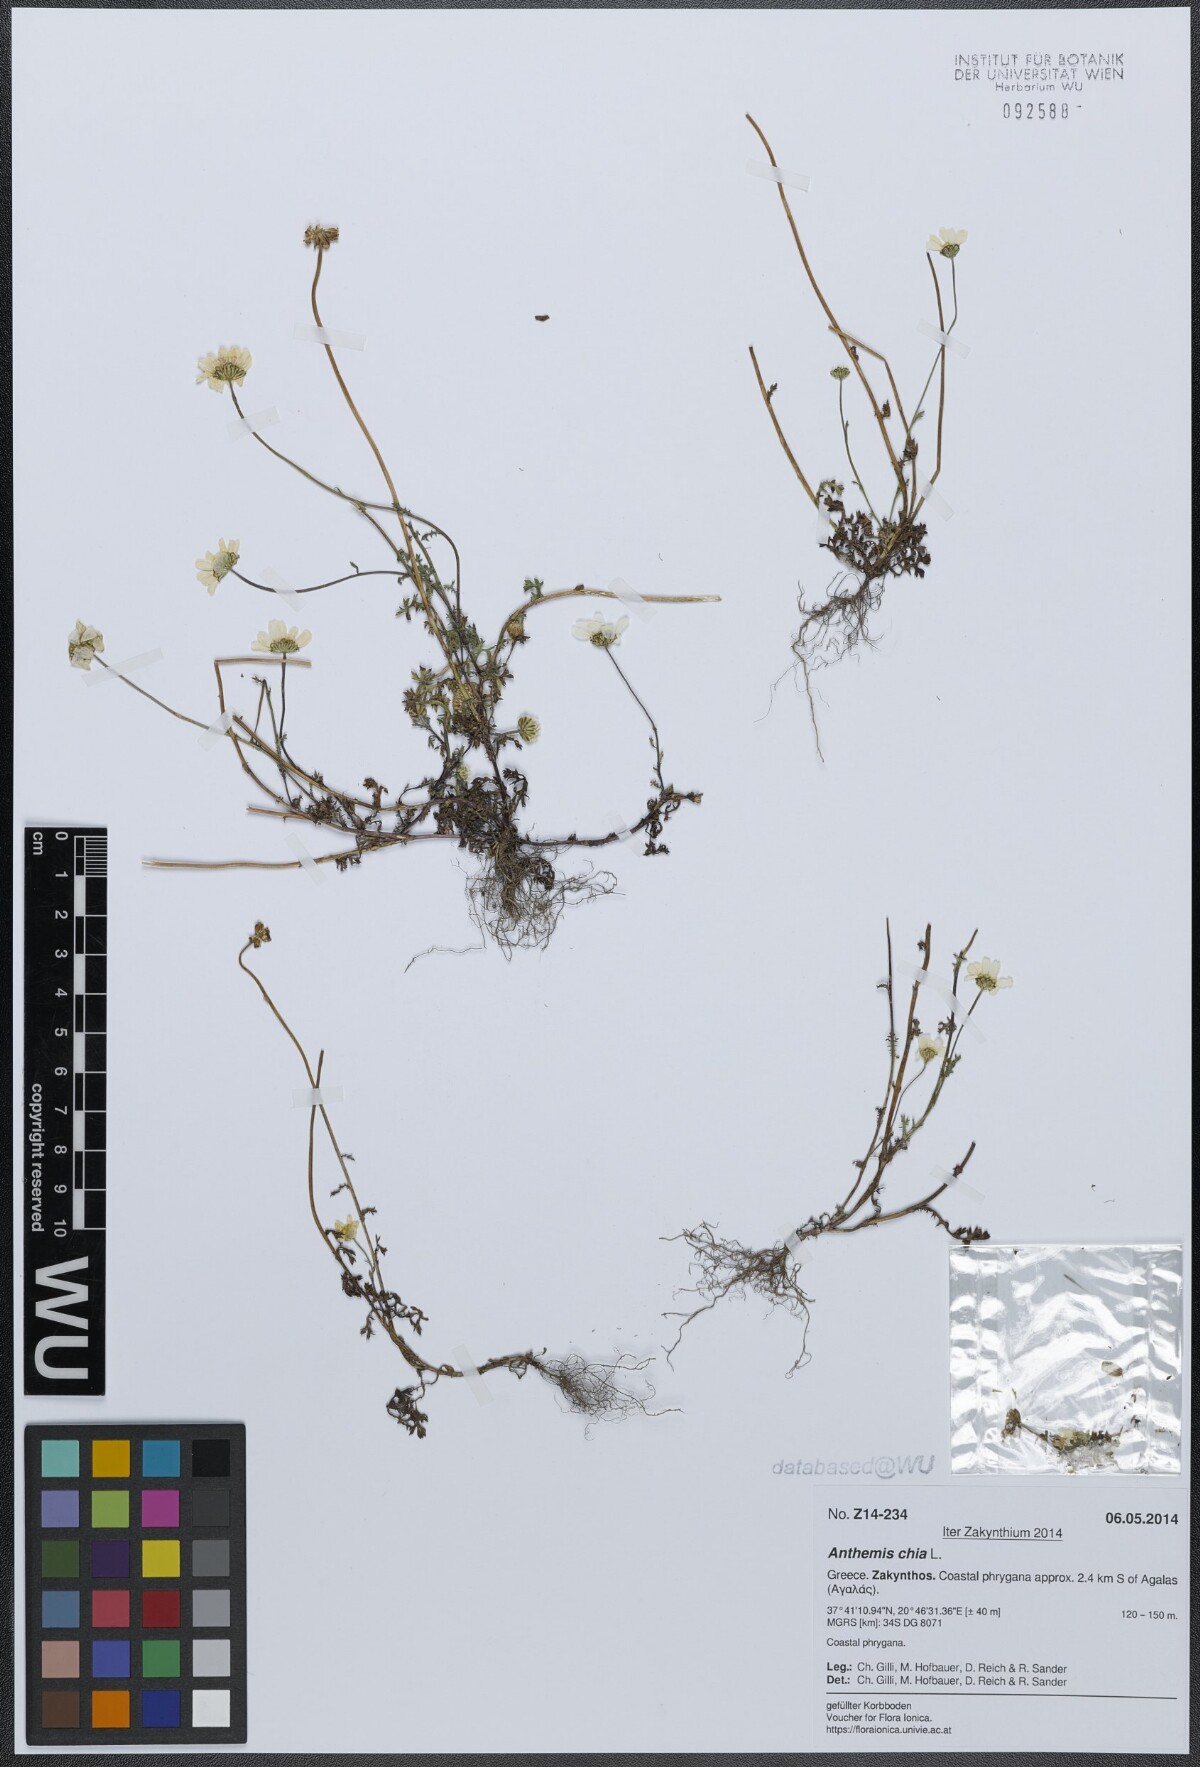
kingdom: Plantae
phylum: Tracheophyta
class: Magnoliopsida
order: Asterales
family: Asteraceae
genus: Anthemis
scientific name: Anthemis chia
